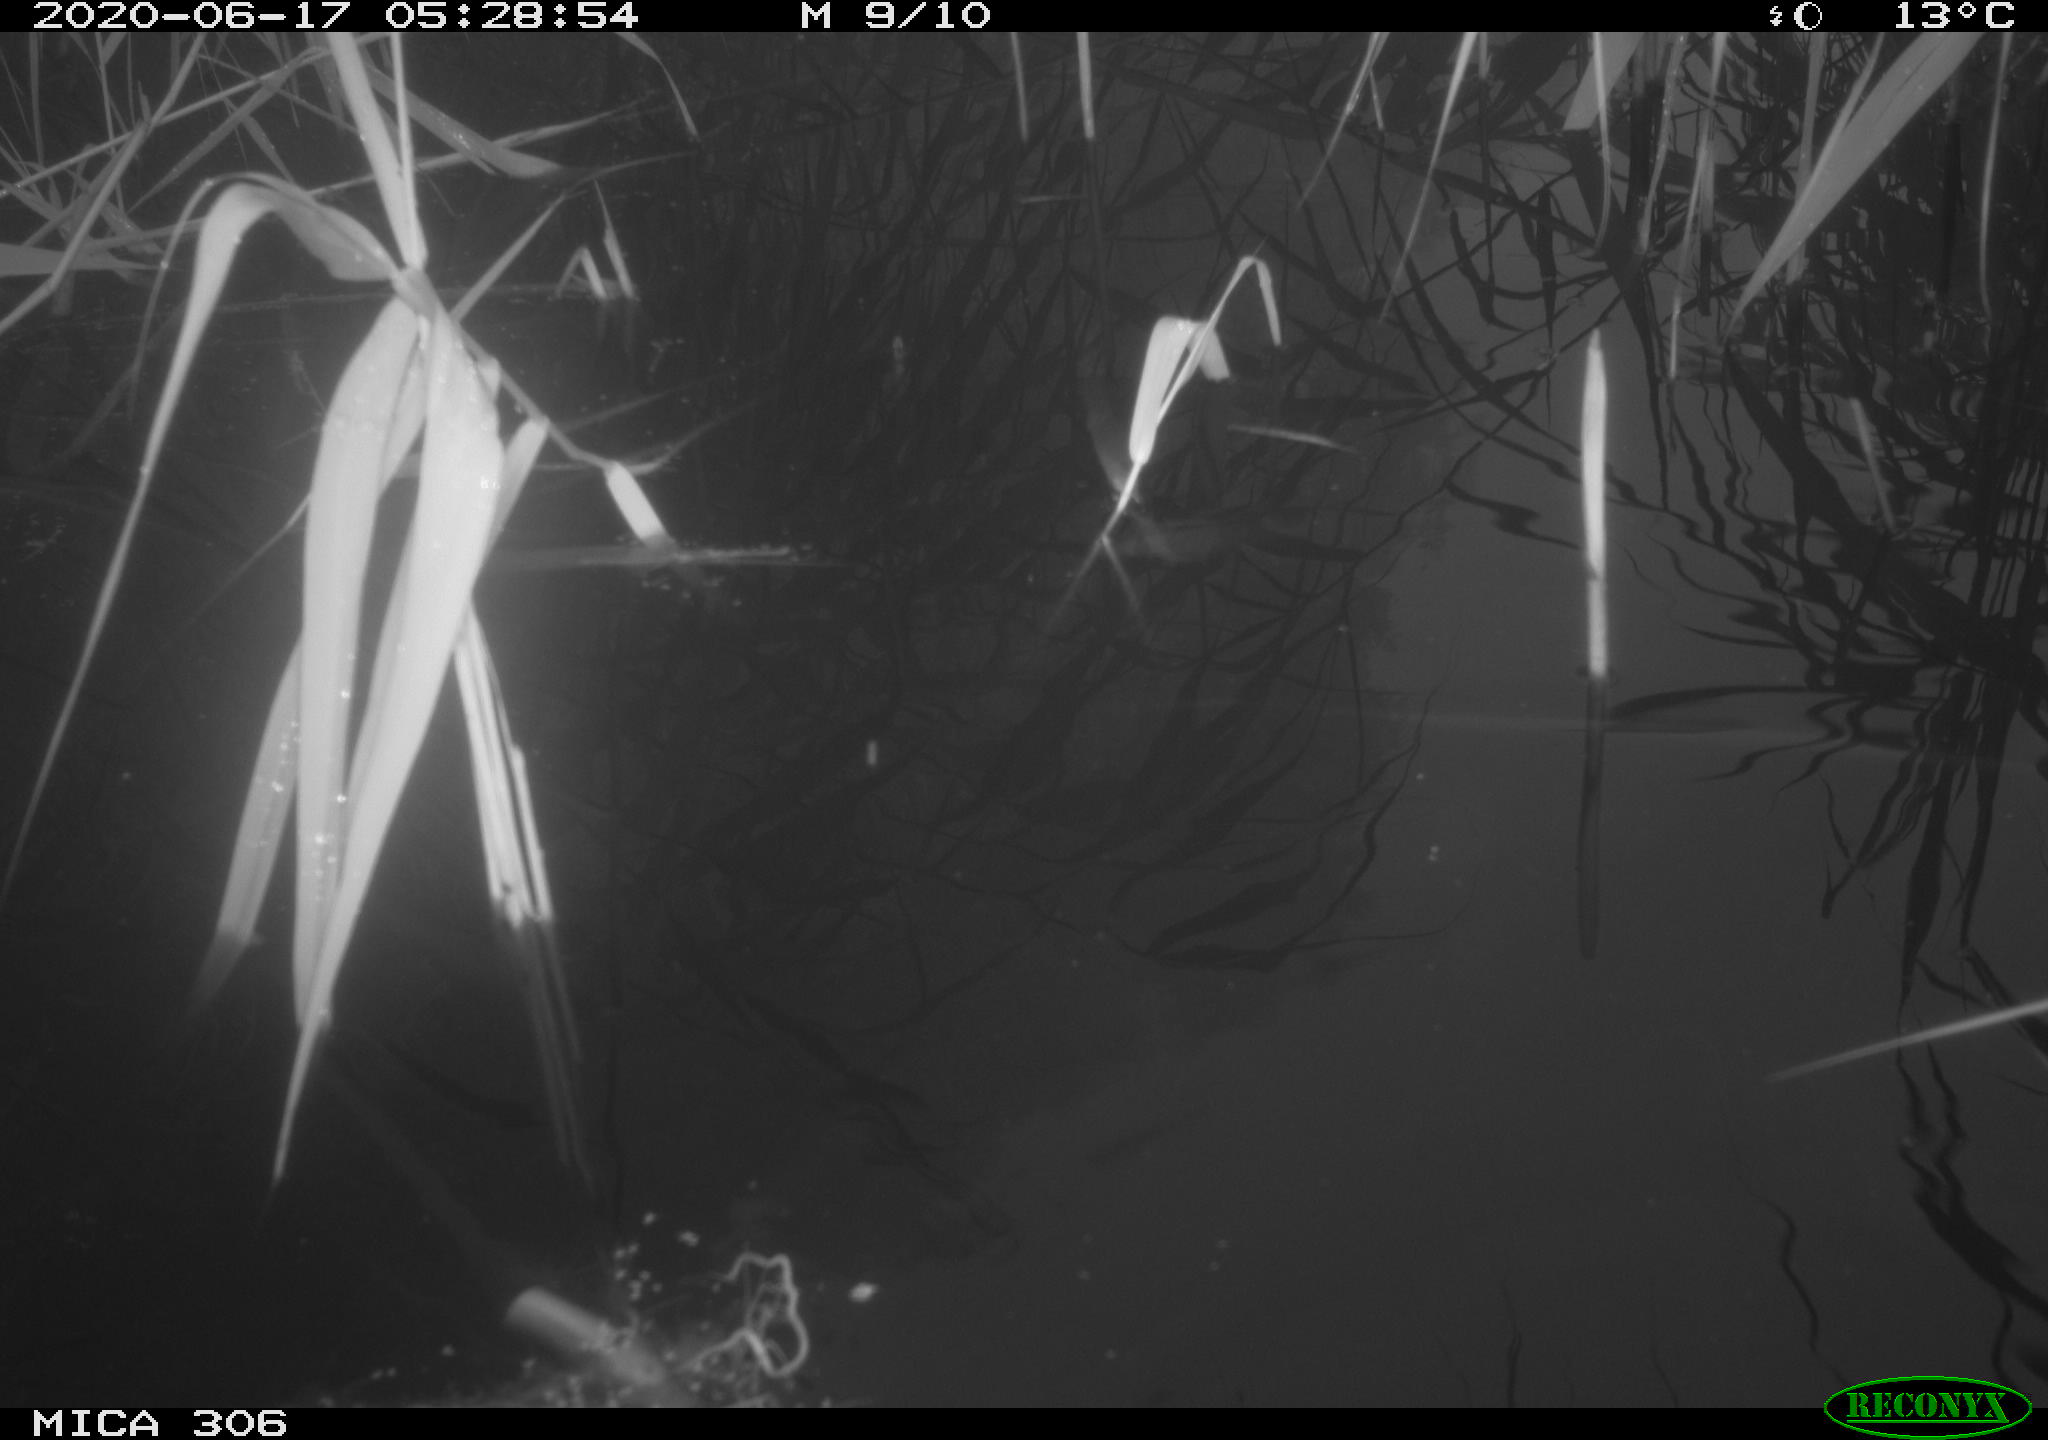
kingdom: Animalia
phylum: Chordata
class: Aves
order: Gruiformes
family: Rallidae
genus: Gallinula
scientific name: Gallinula chloropus
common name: Common moorhen
